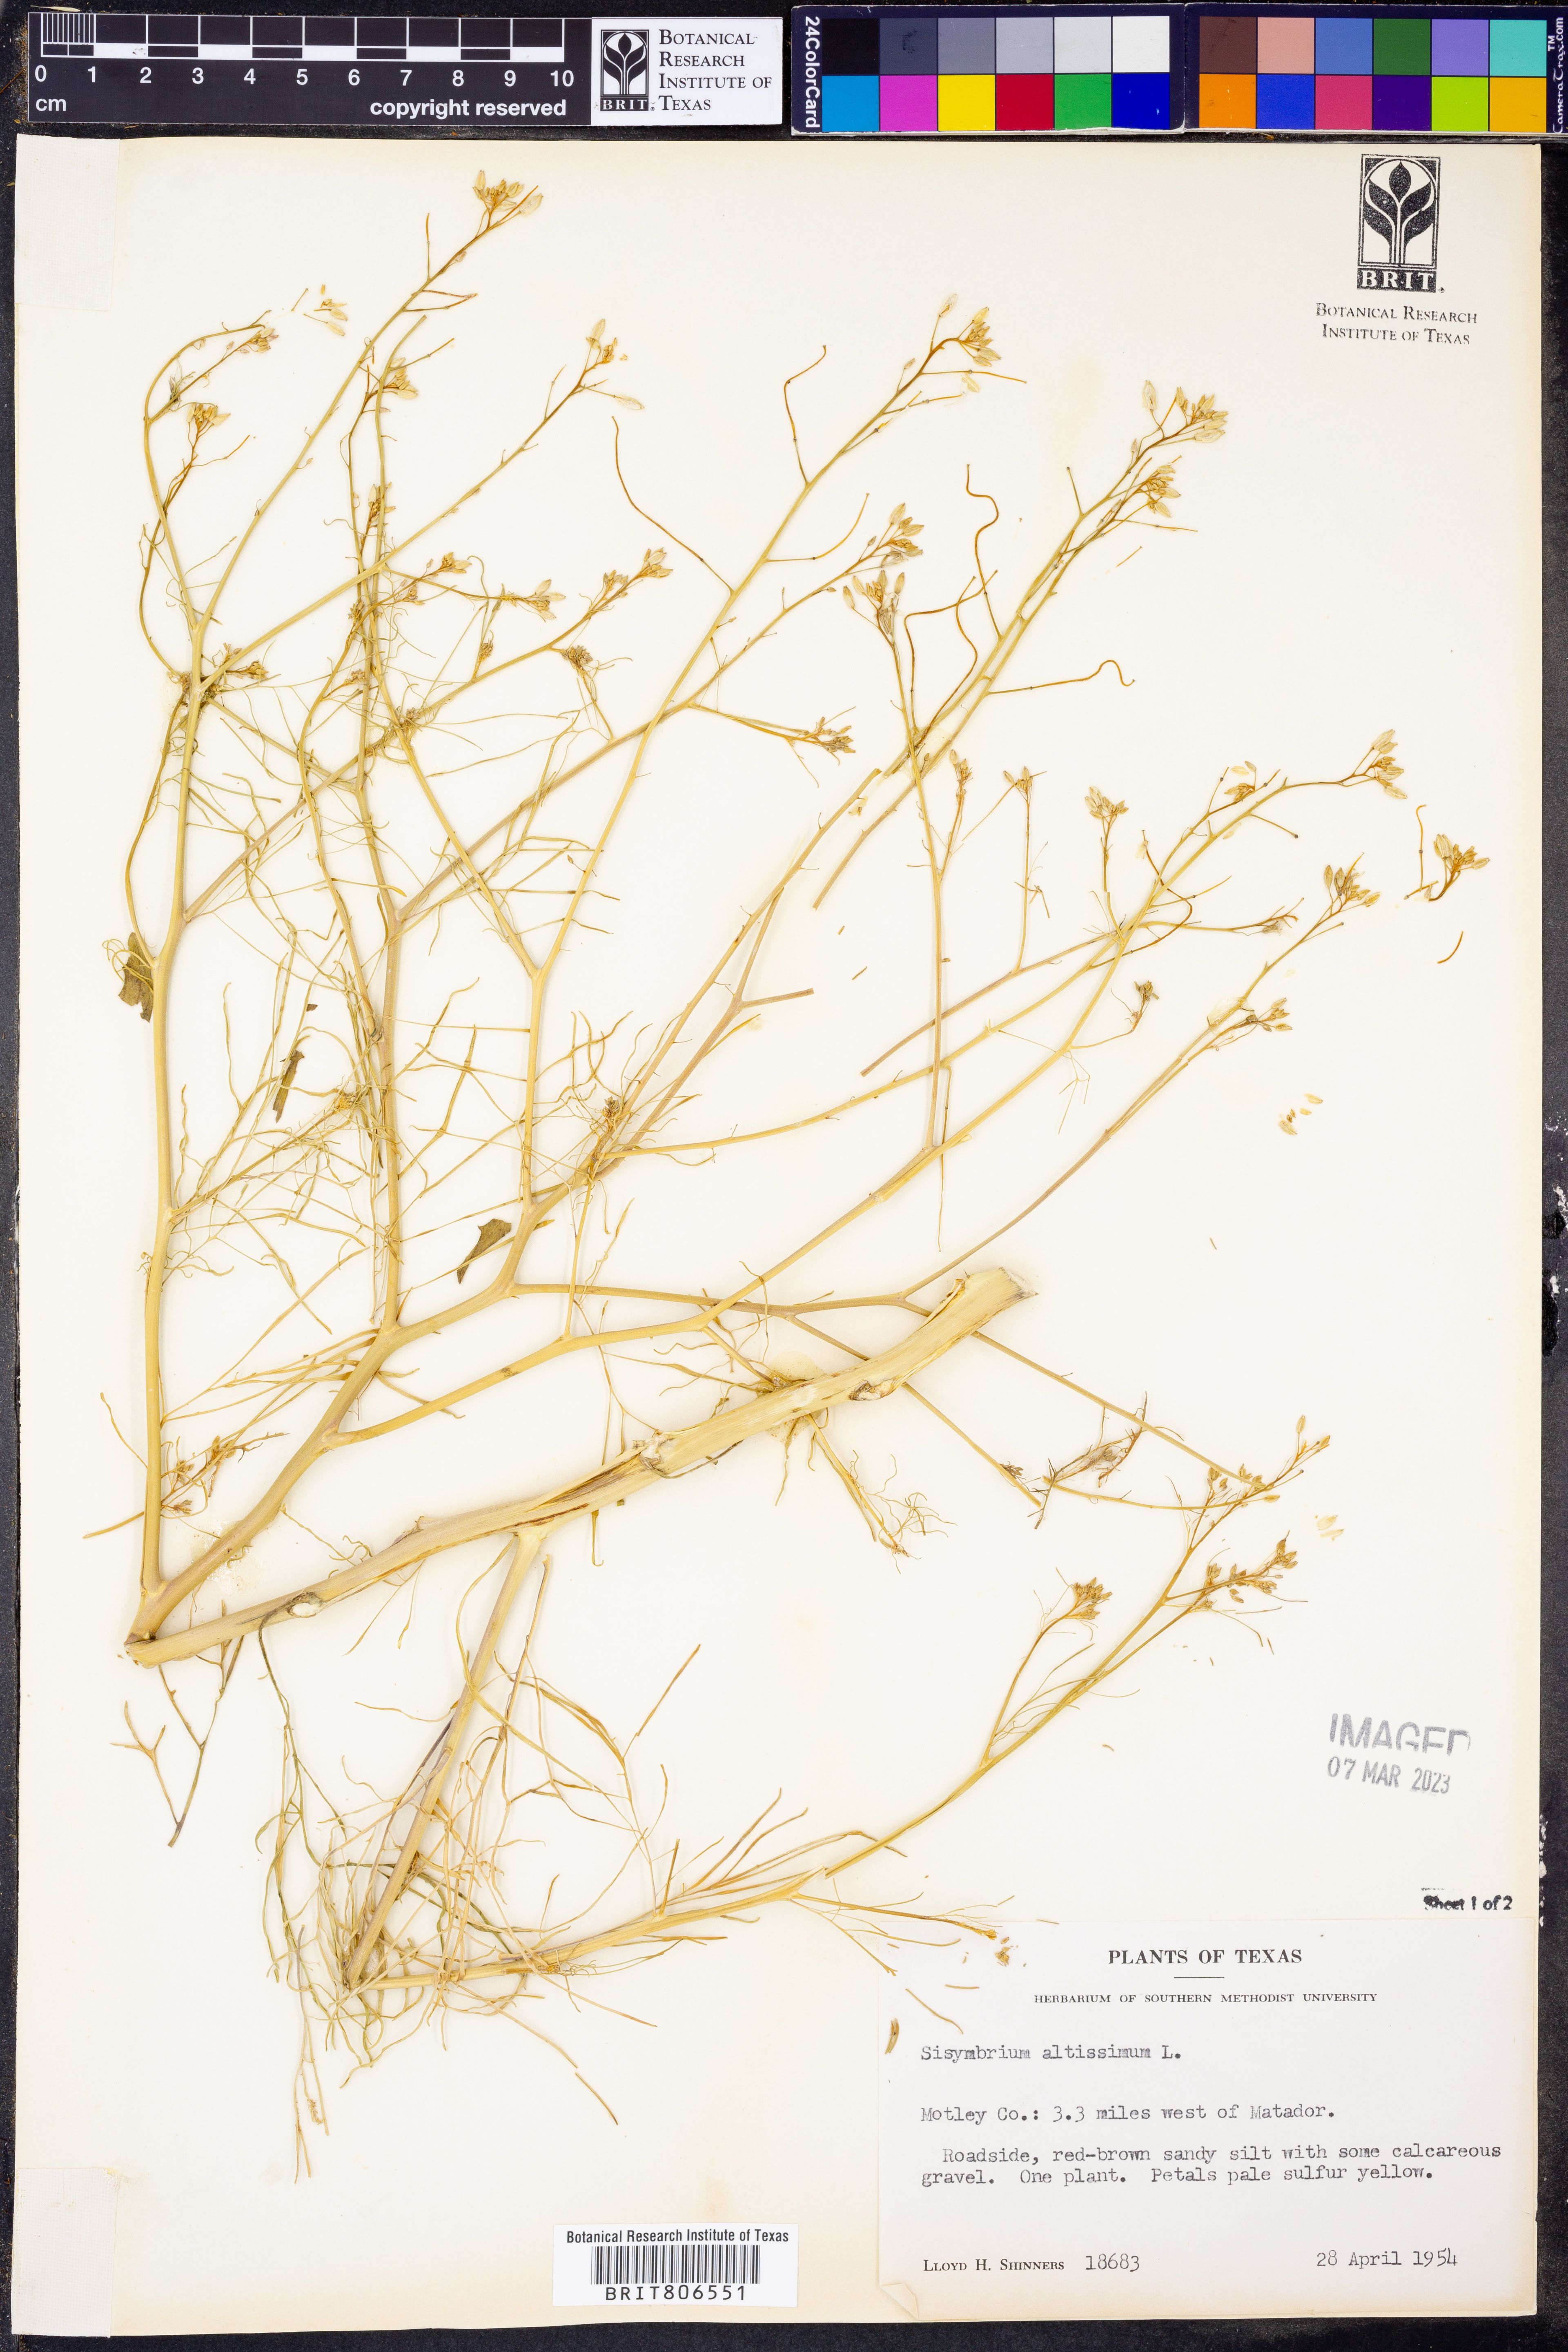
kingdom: Plantae
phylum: Tracheophyta
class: Magnoliopsida
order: Brassicales
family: Brassicaceae
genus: Sisymbrium
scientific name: Sisymbrium altissimum
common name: Tall rocket
